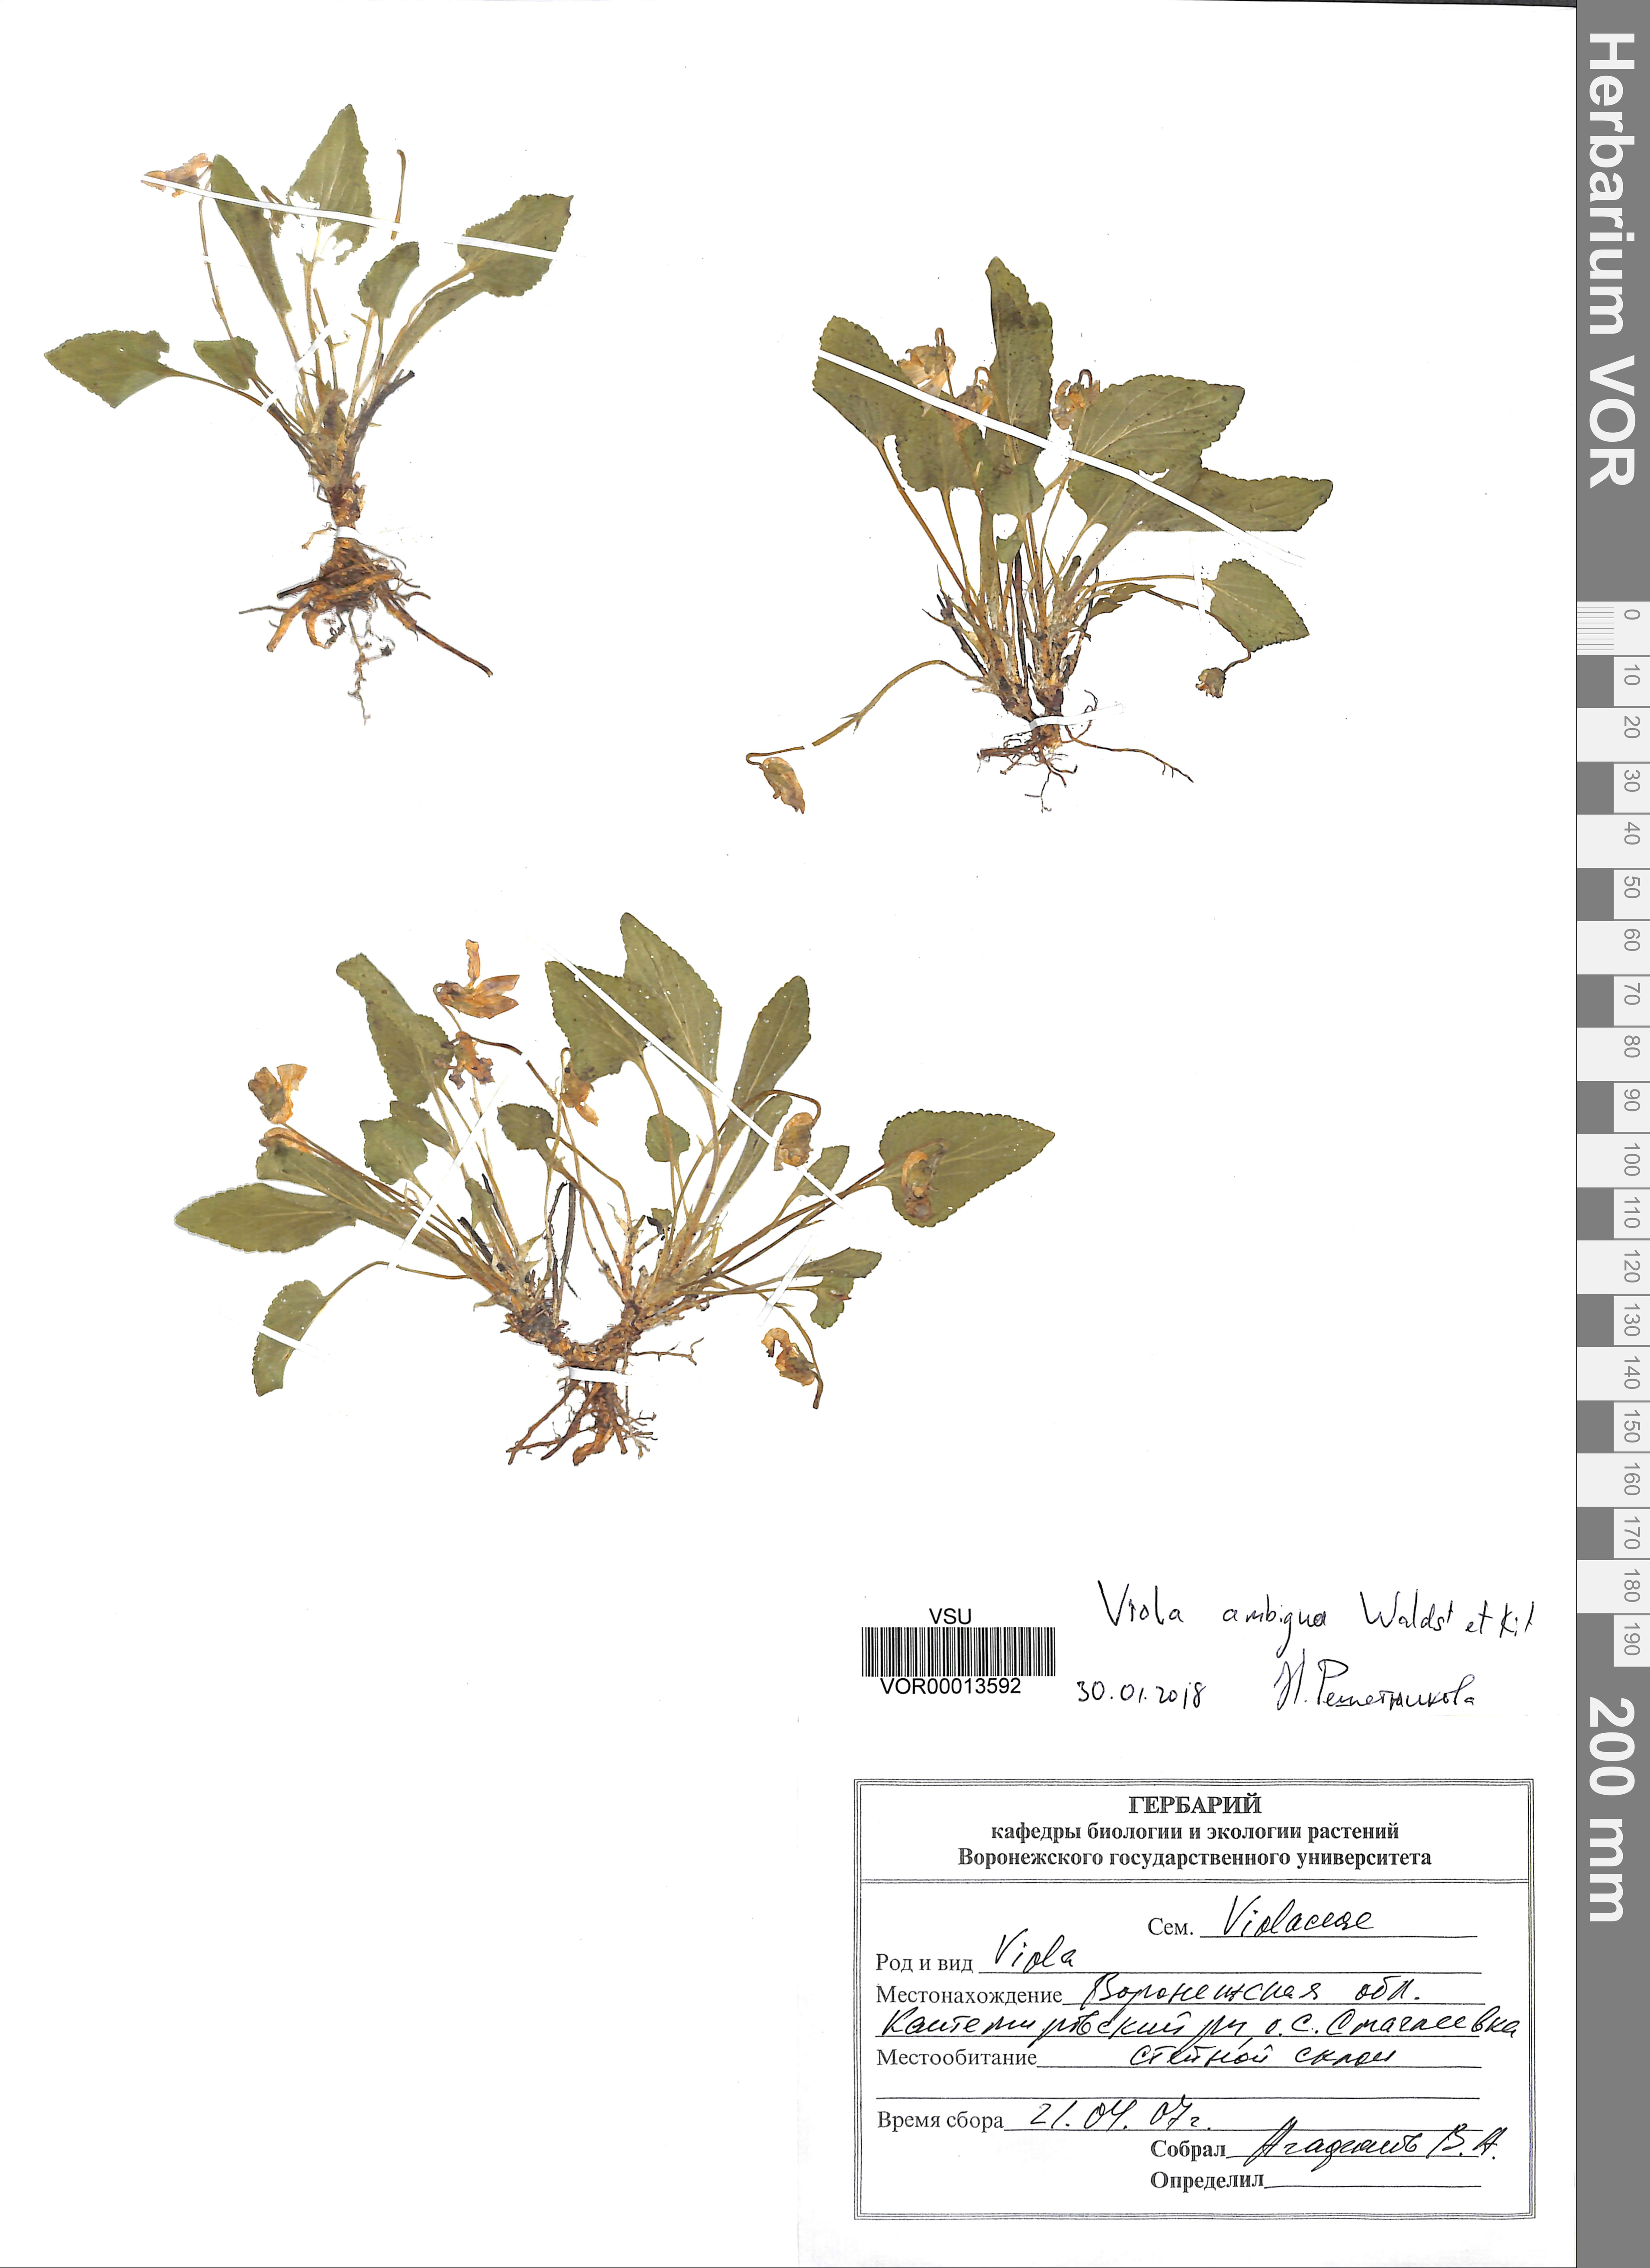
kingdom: Plantae
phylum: Tracheophyta
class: Magnoliopsida
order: Malpighiales
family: Violaceae
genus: Viola
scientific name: Viola ambigua
